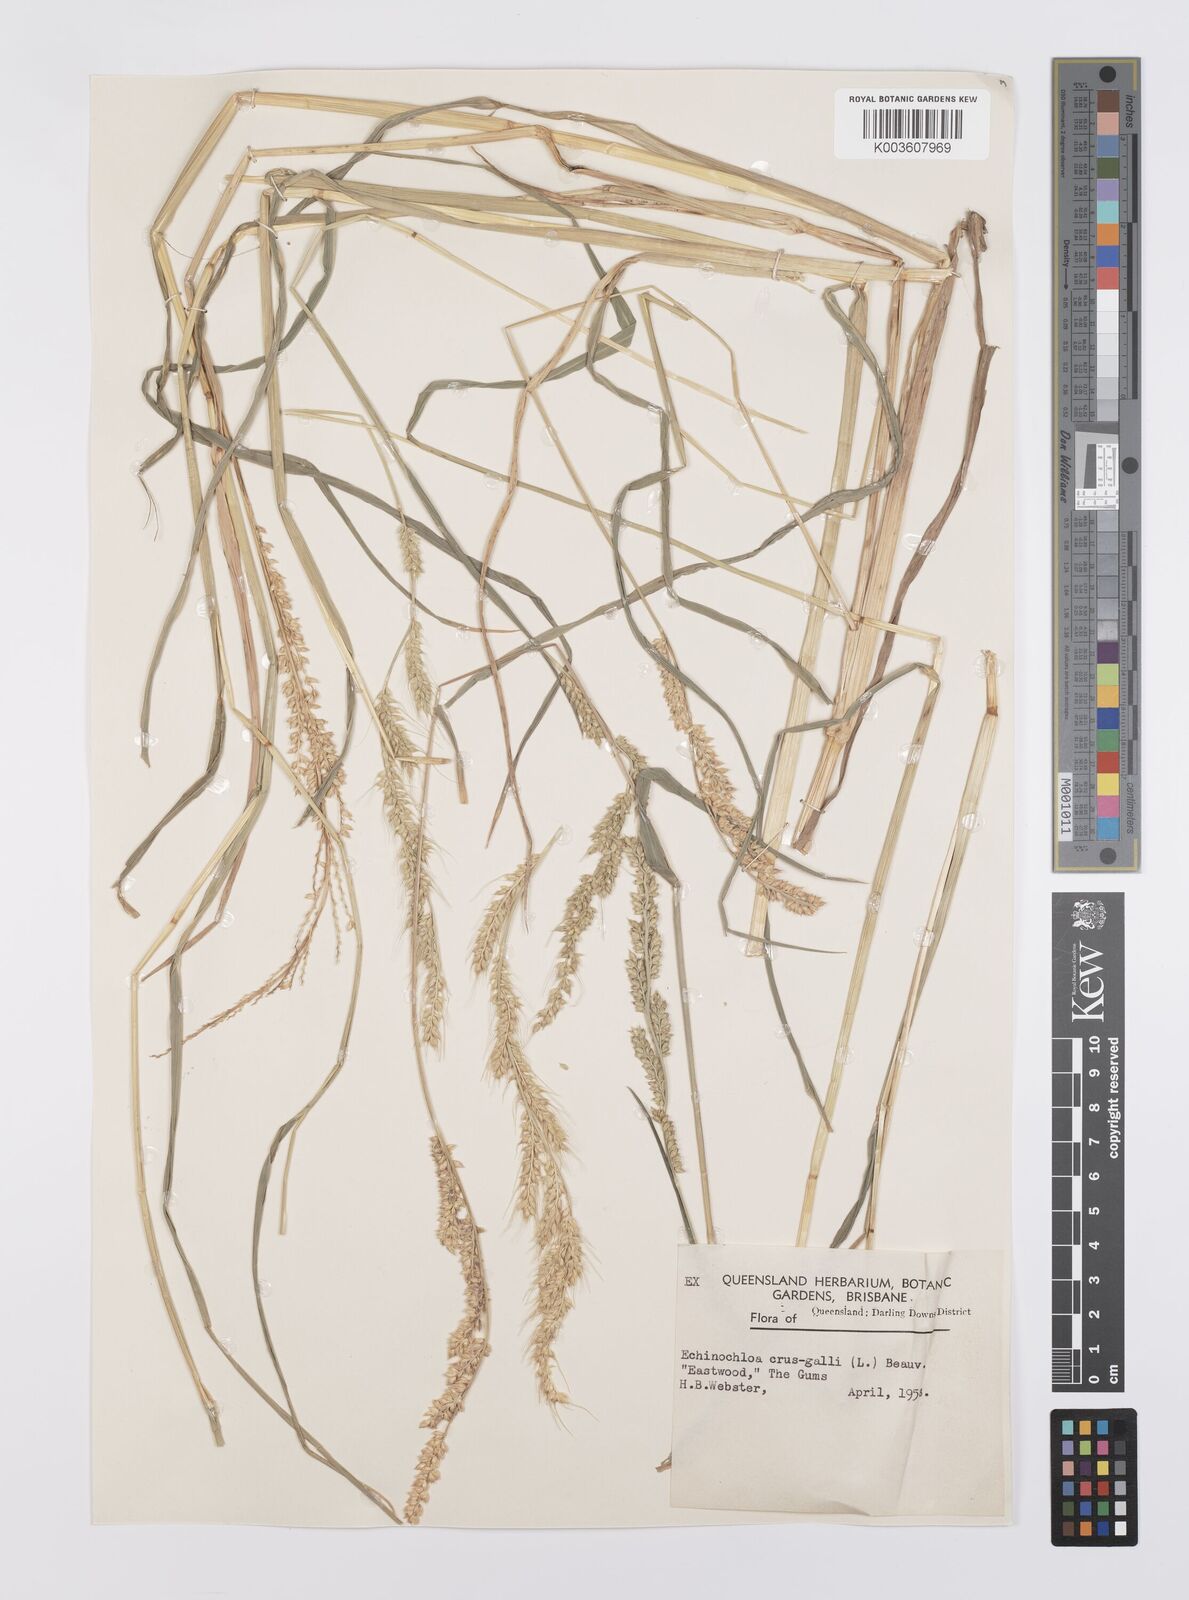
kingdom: Plantae
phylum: Tracheophyta
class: Liliopsida
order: Poales
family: Poaceae
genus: Echinochloa
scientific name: Echinochloa crus-galli
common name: Cockspur
